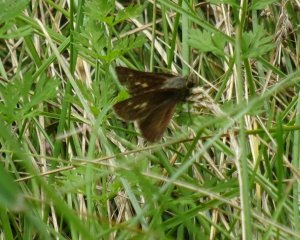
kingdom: Animalia
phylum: Arthropoda
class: Insecta
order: Lepidoptera
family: Hesperiidae
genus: Polites
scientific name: Polites egeremet
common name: Northern Broken-Dash
